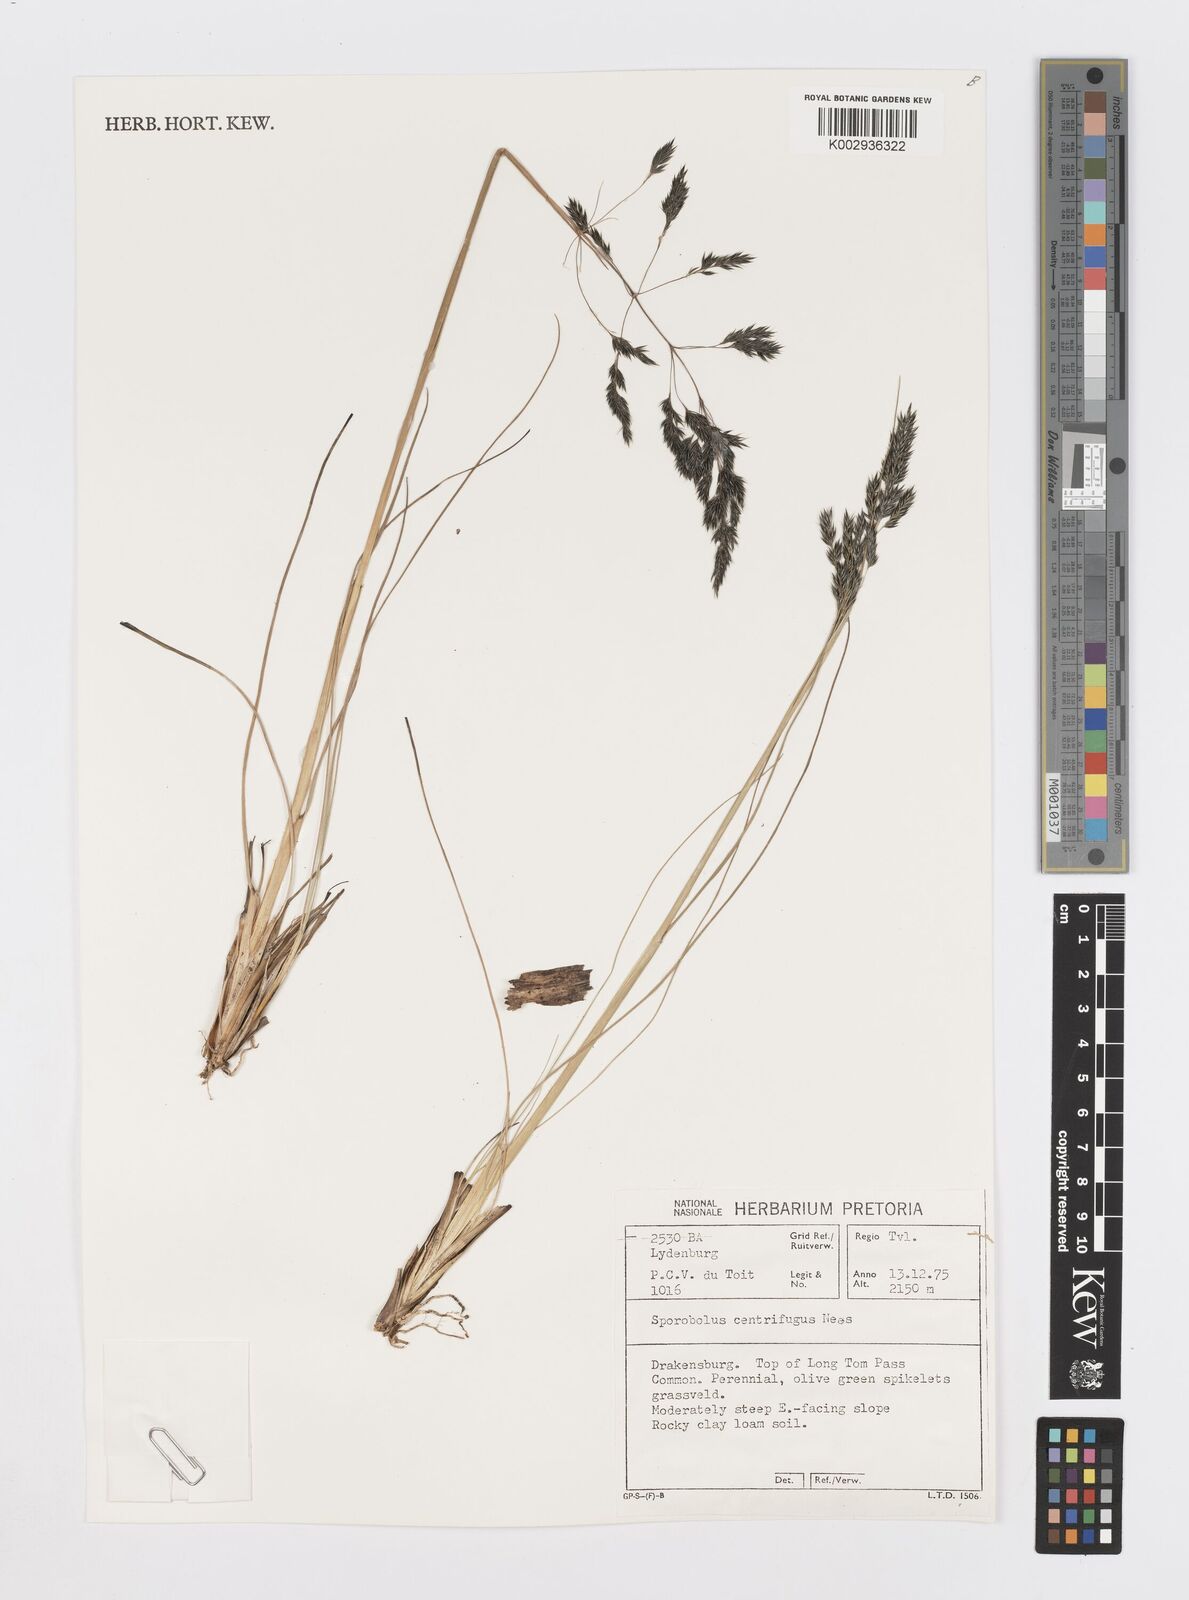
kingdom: Plantae
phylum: Tracheophyta
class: Liliopsida
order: Poales
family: Poaceae
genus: Sporobolus
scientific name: Sporobolus centrifugus
